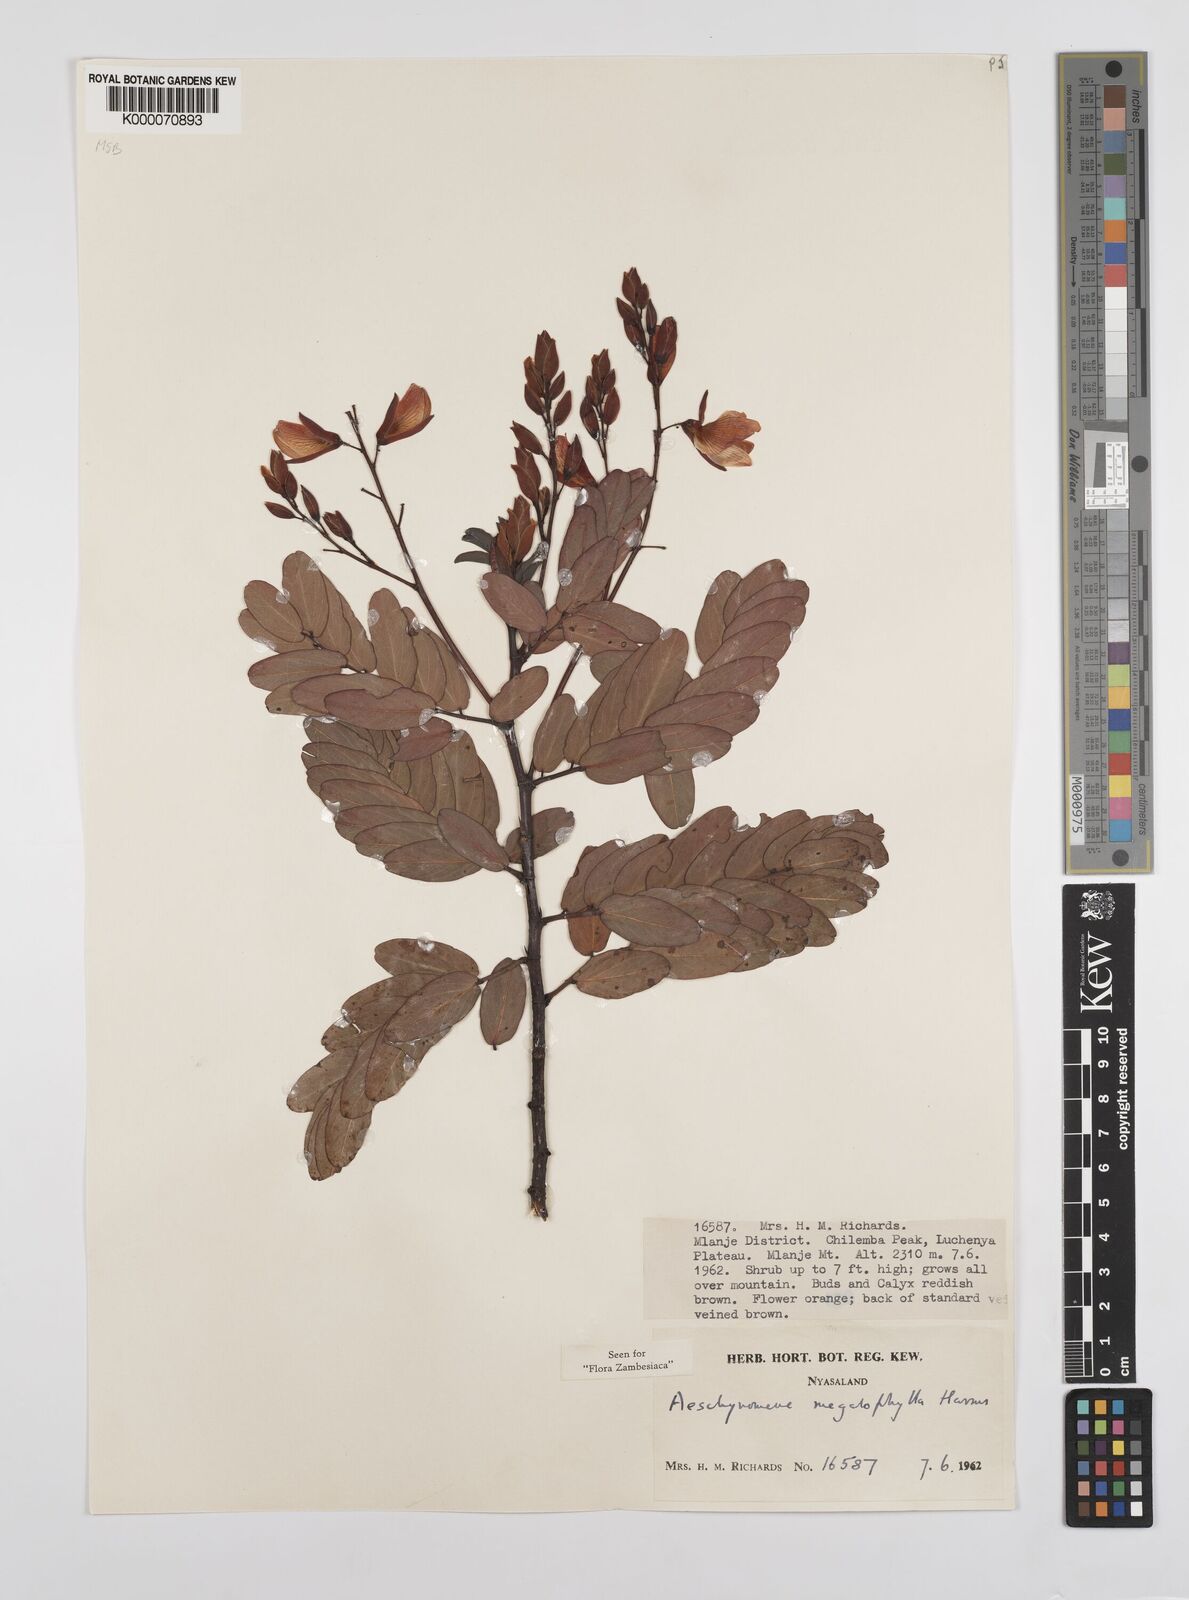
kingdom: Plantae
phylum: Tracheophyta
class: Magnoliopsida
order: Fabales
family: Fabaceae
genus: Aeschynomene
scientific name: Aeschynomene megalophylla
